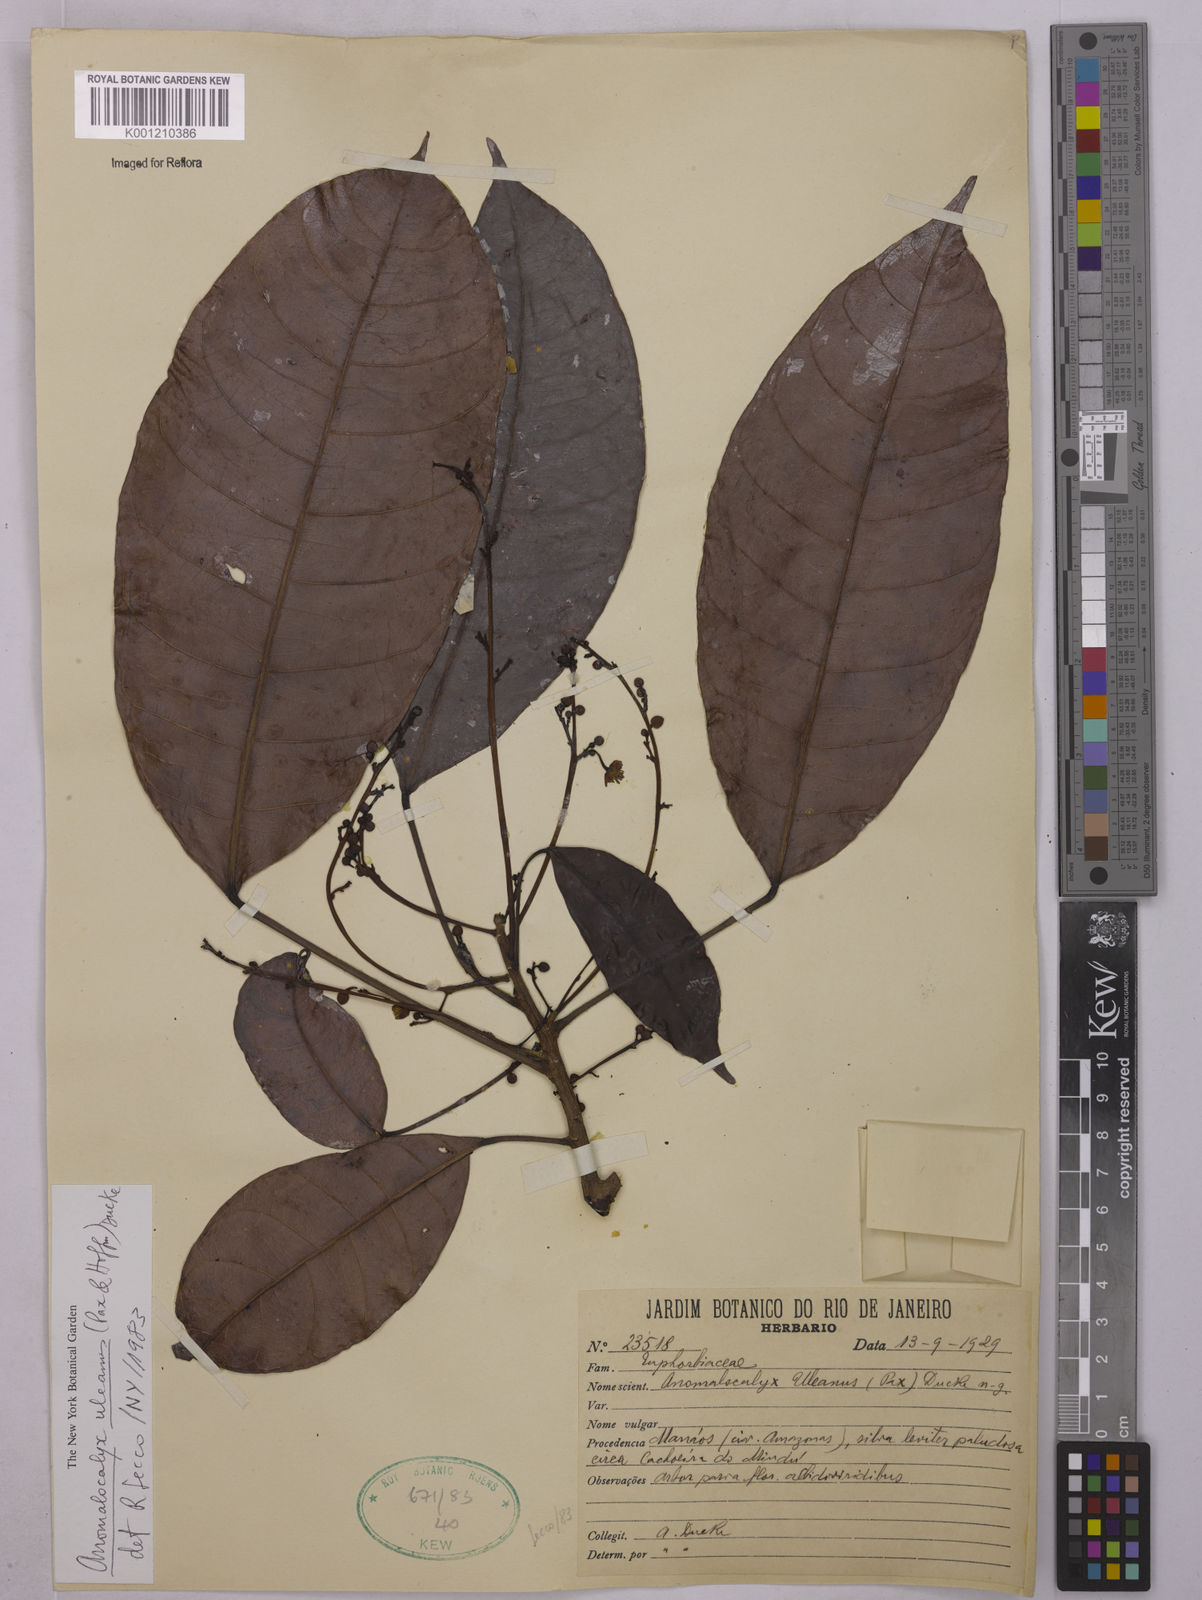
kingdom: Plantae
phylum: Tracheophyta
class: Magnoliopsida
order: Malpighiales
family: Euphorbiaceae
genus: Dodecastigma
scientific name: Dodecastigma uleanum
